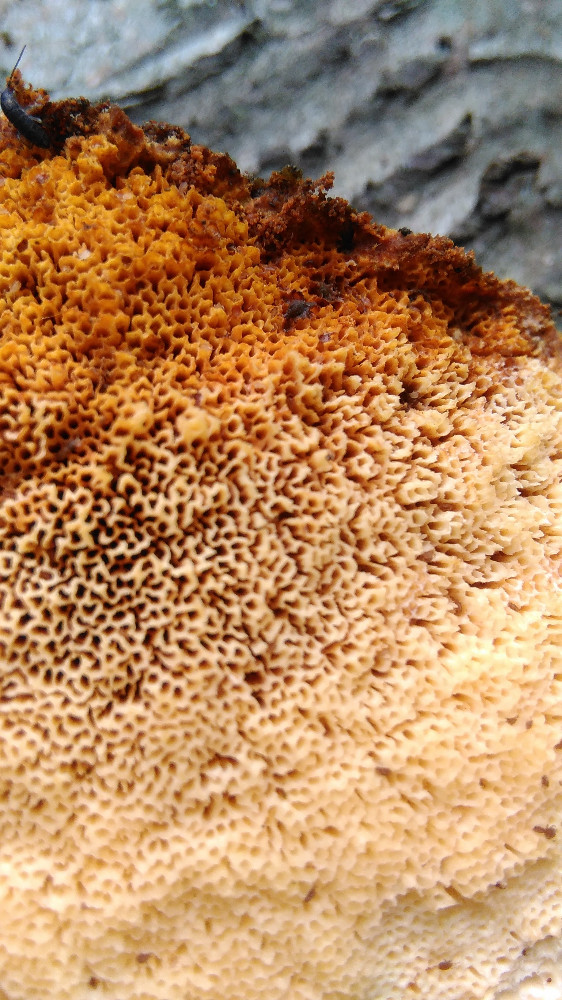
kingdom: Fungi
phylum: Basidiomycota
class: Agaricomycetes
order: Polyporales
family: Pycnoporellaceae
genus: Pycnoporellus
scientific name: Pycnoporellus fulgens
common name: flammeporesvamp
